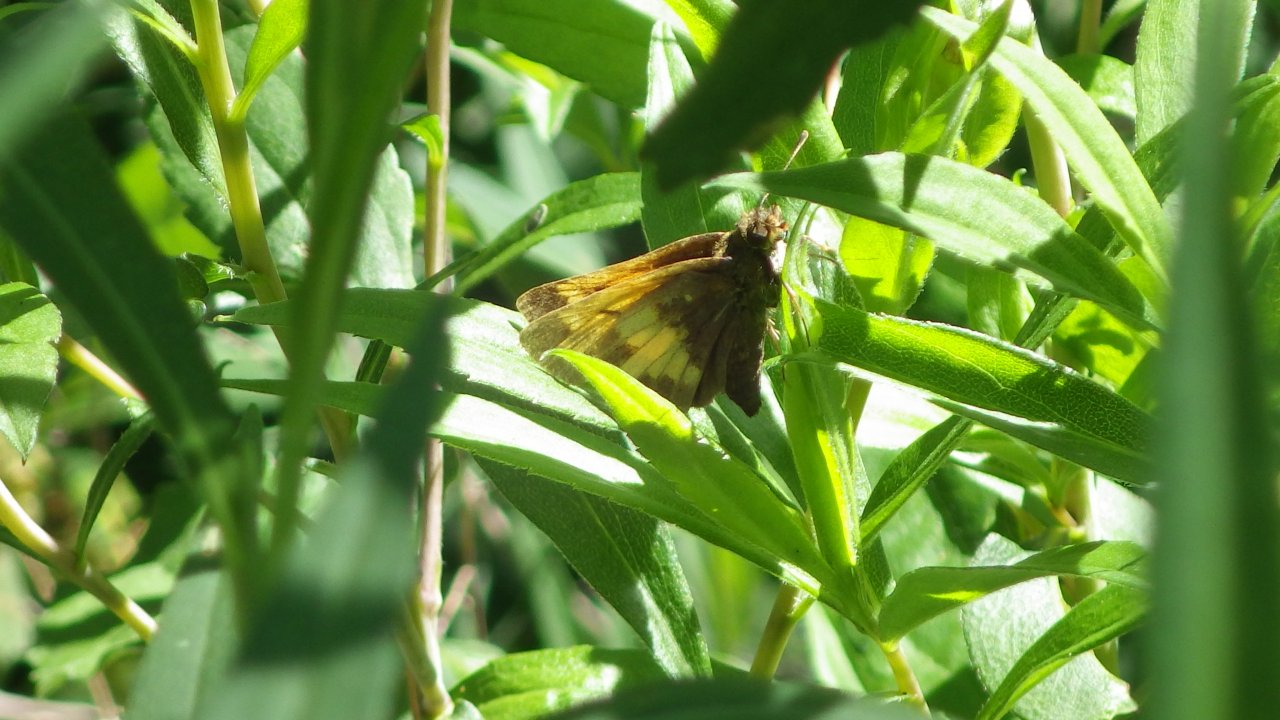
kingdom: Animalia
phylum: Arthropoda
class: Insecta
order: Lepidoptera
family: Hesperiidae
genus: Lon
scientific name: Lon hobomok
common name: Hobomok Skipper
